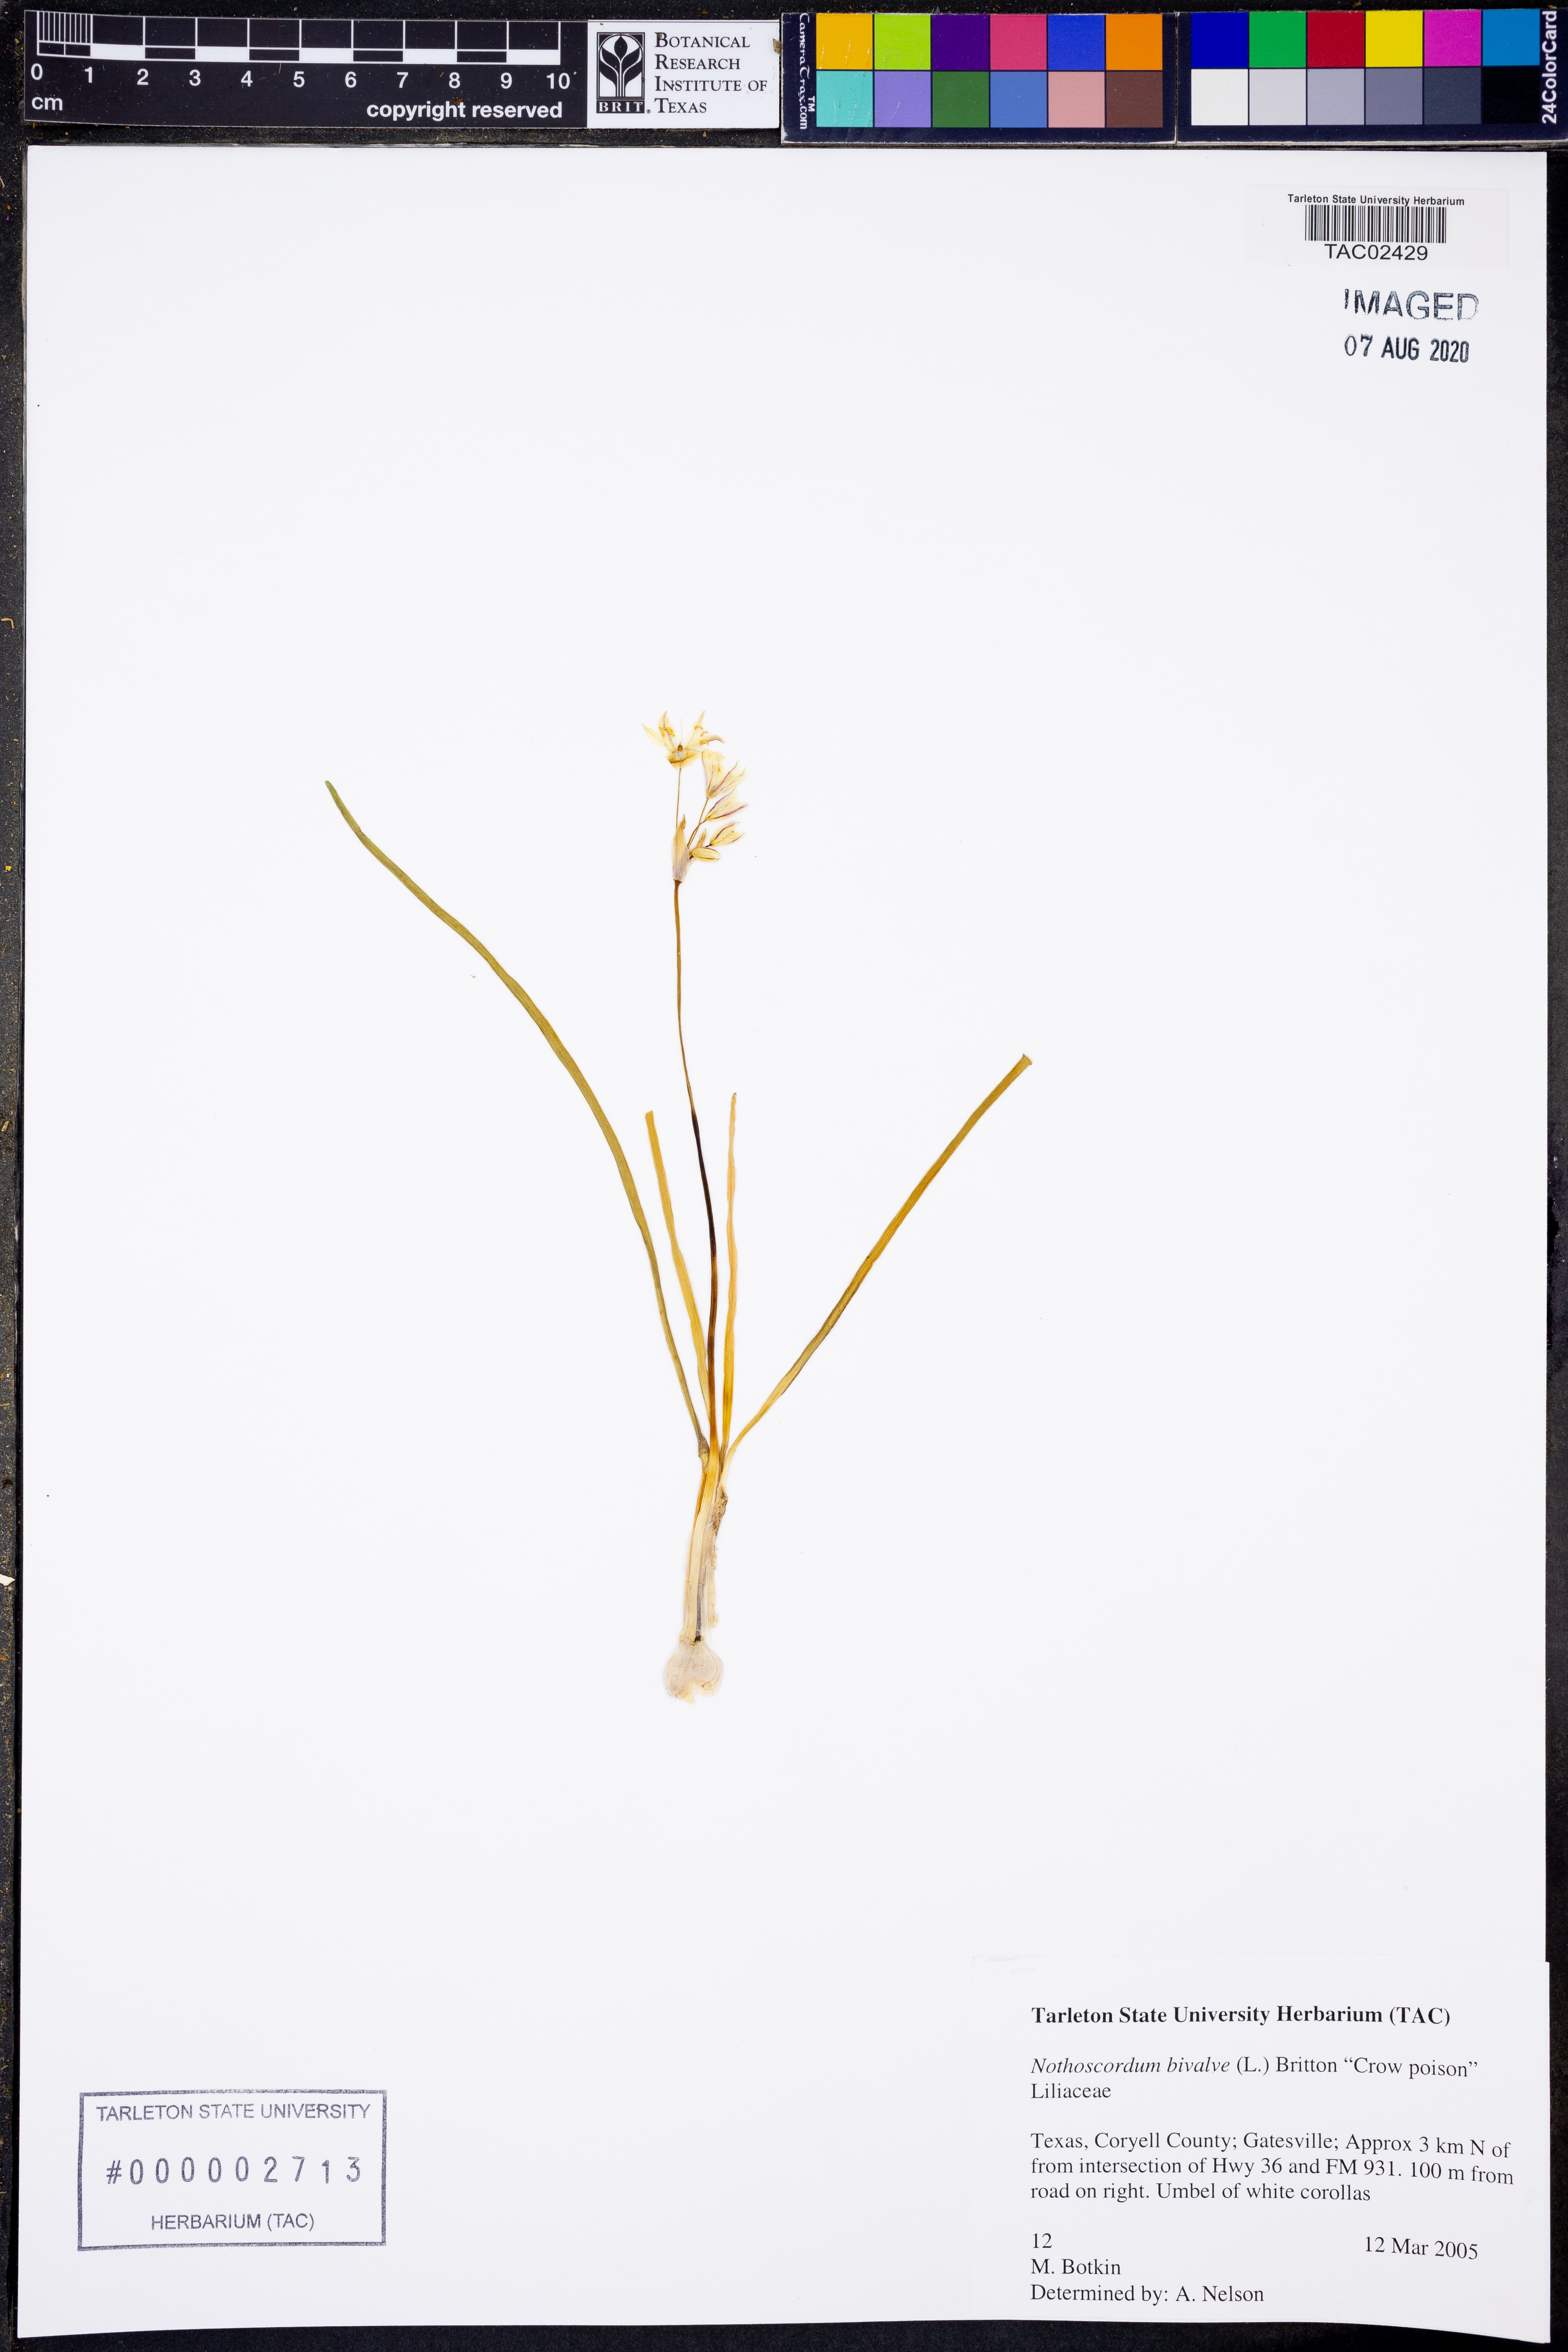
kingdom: Plantae
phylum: Tracheophyta
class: Liliopsida
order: Asparagales
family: Amaryllidaceae
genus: Nothoscordum
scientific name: Nothoscordum bivalve
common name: Crow-poison
